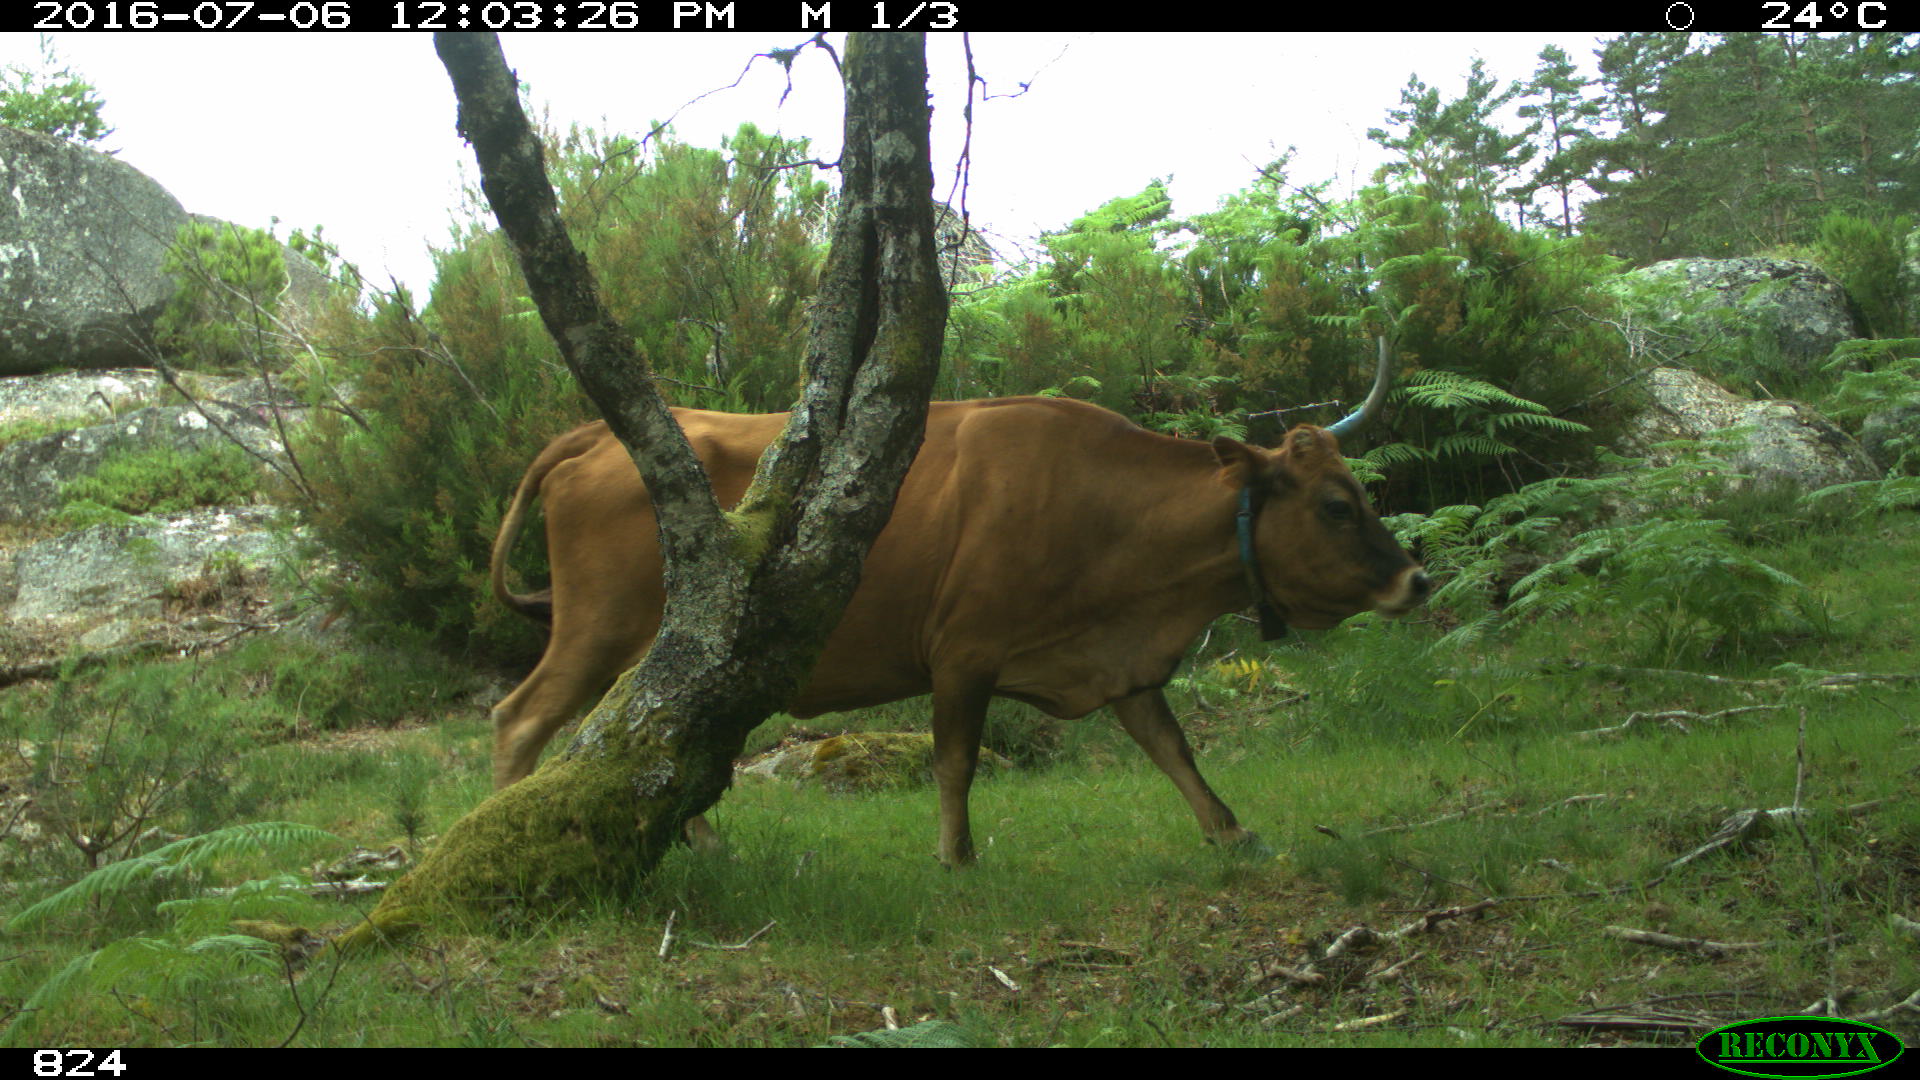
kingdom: Animalia
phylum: Chordata
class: Mammalia
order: Artiodactyla
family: Bovidae
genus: Bos
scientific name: Bos taurus
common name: Domesticated cattle
